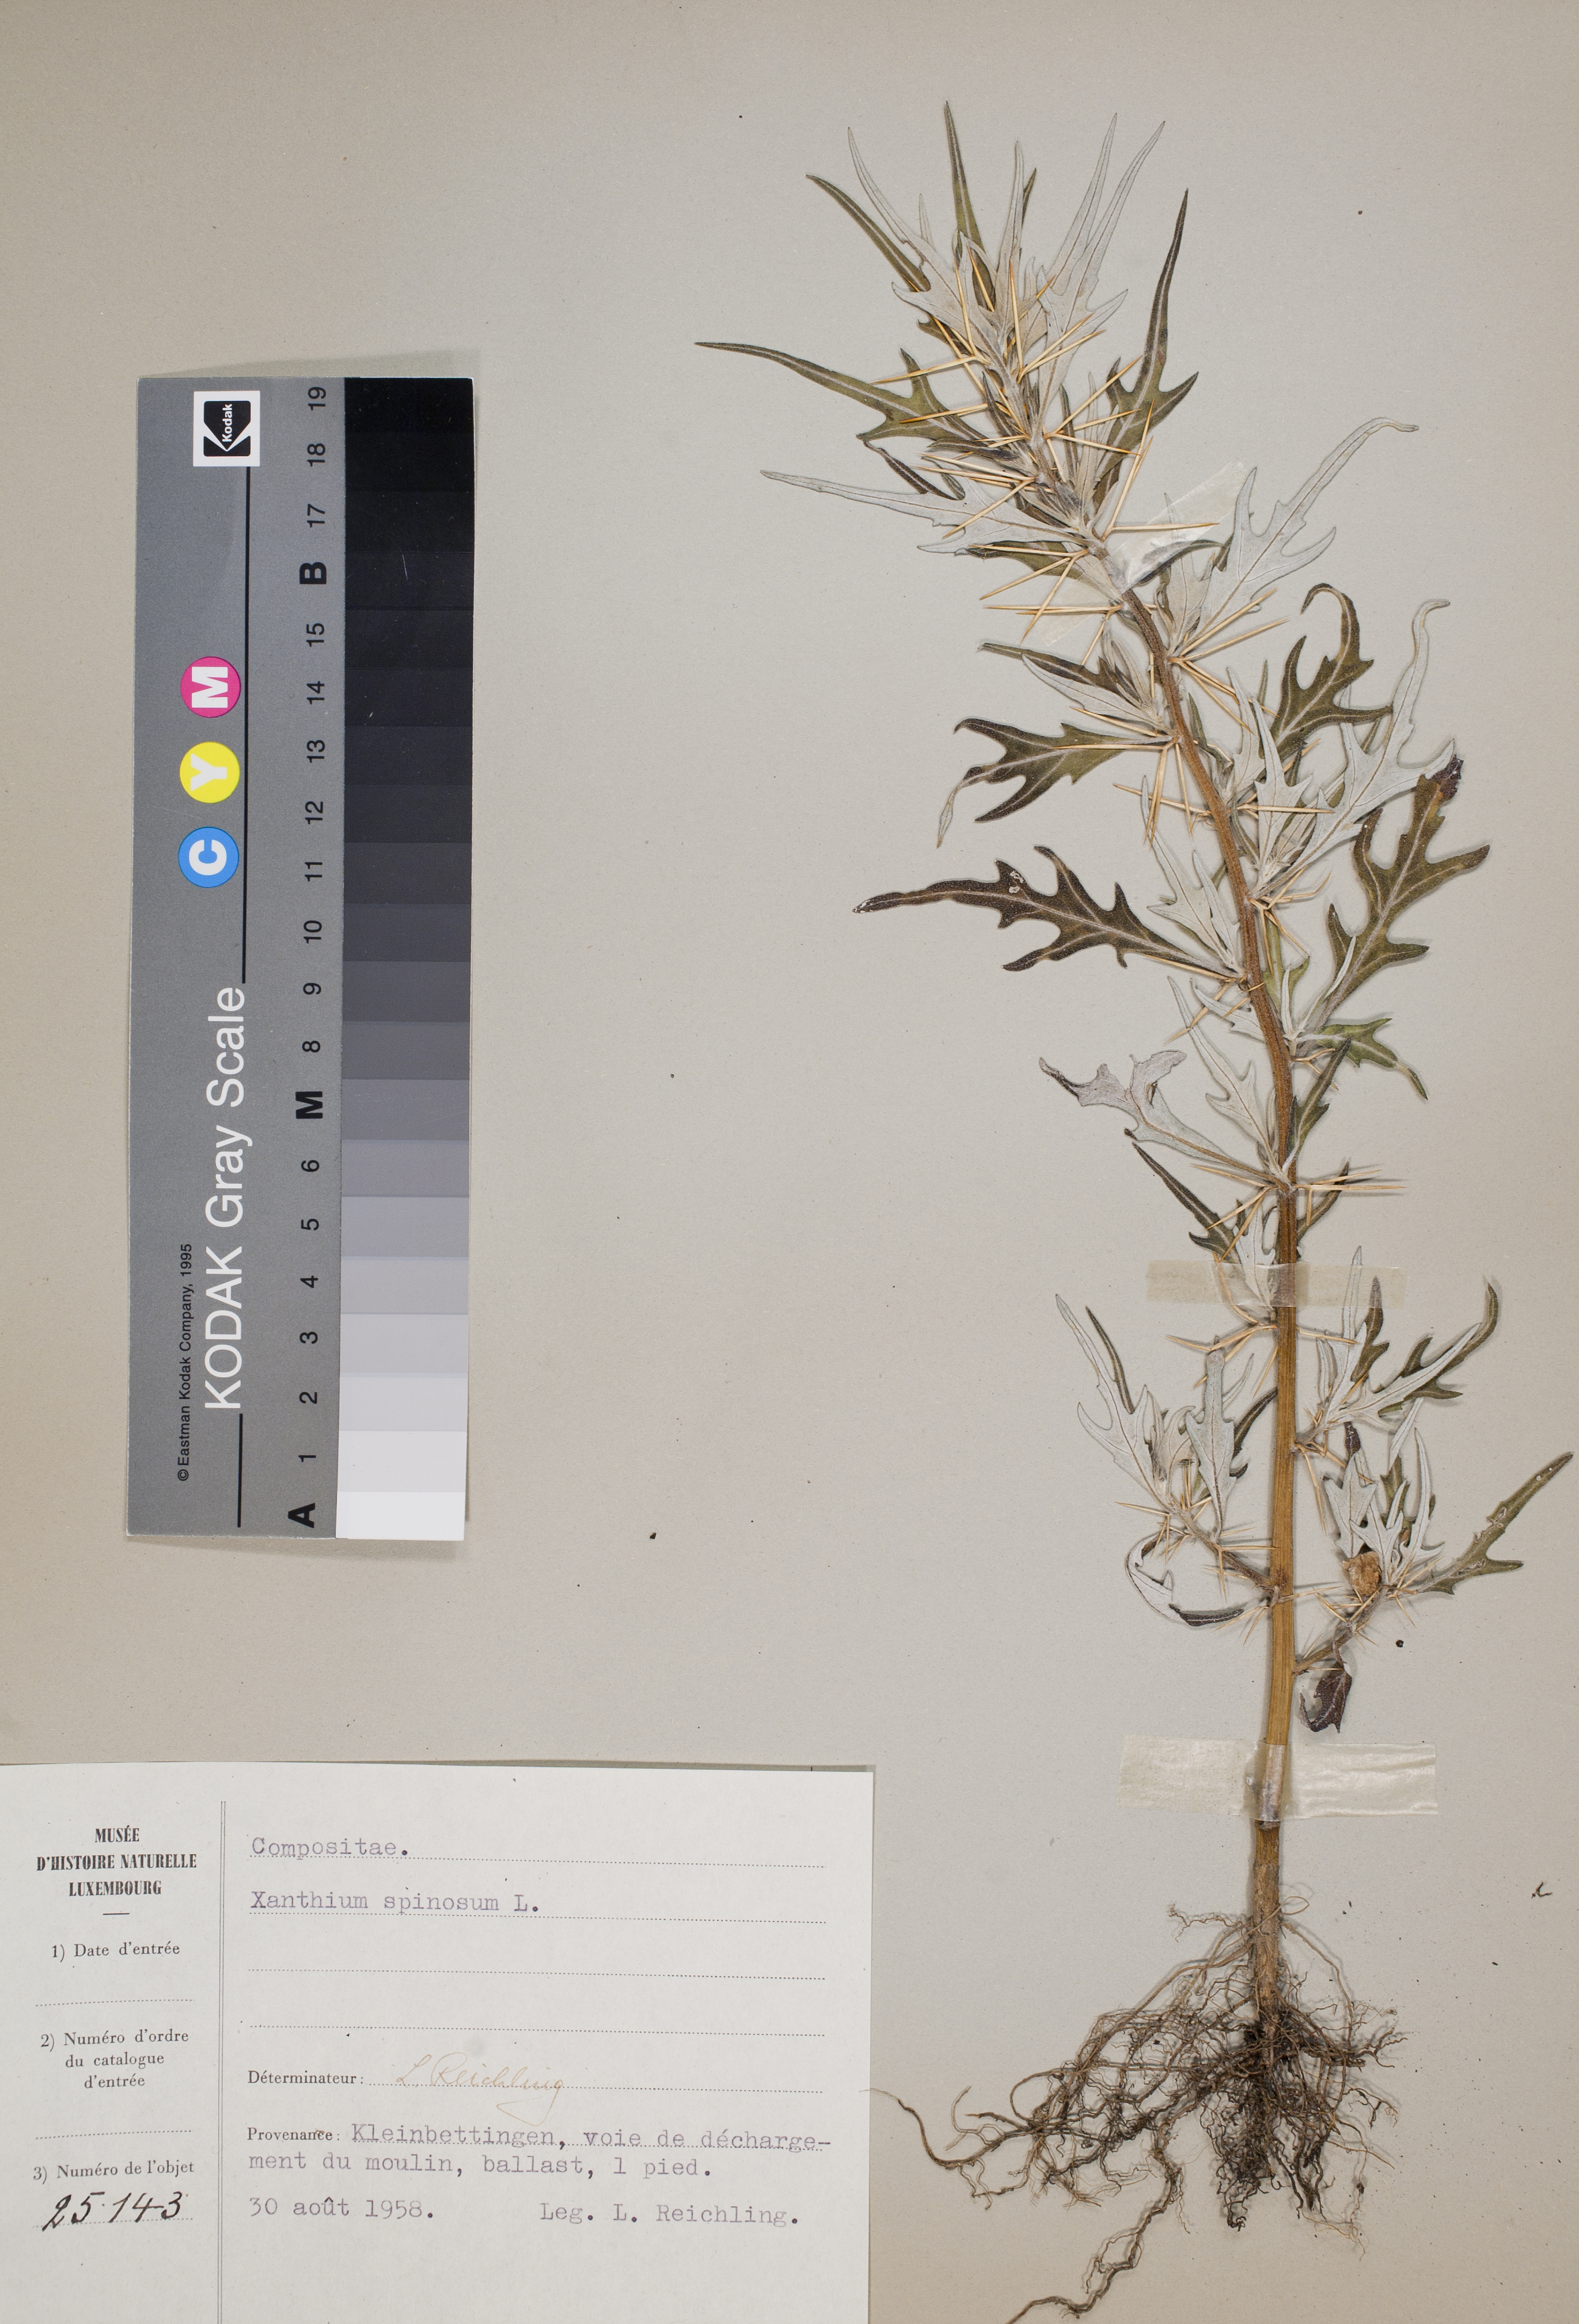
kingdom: Plantae
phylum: Tracheophyta
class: Magnoliopsida
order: Asterales
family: Asteraceae
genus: Xanthium
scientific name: Xanthium spinosum
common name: Spiny cocklebur
